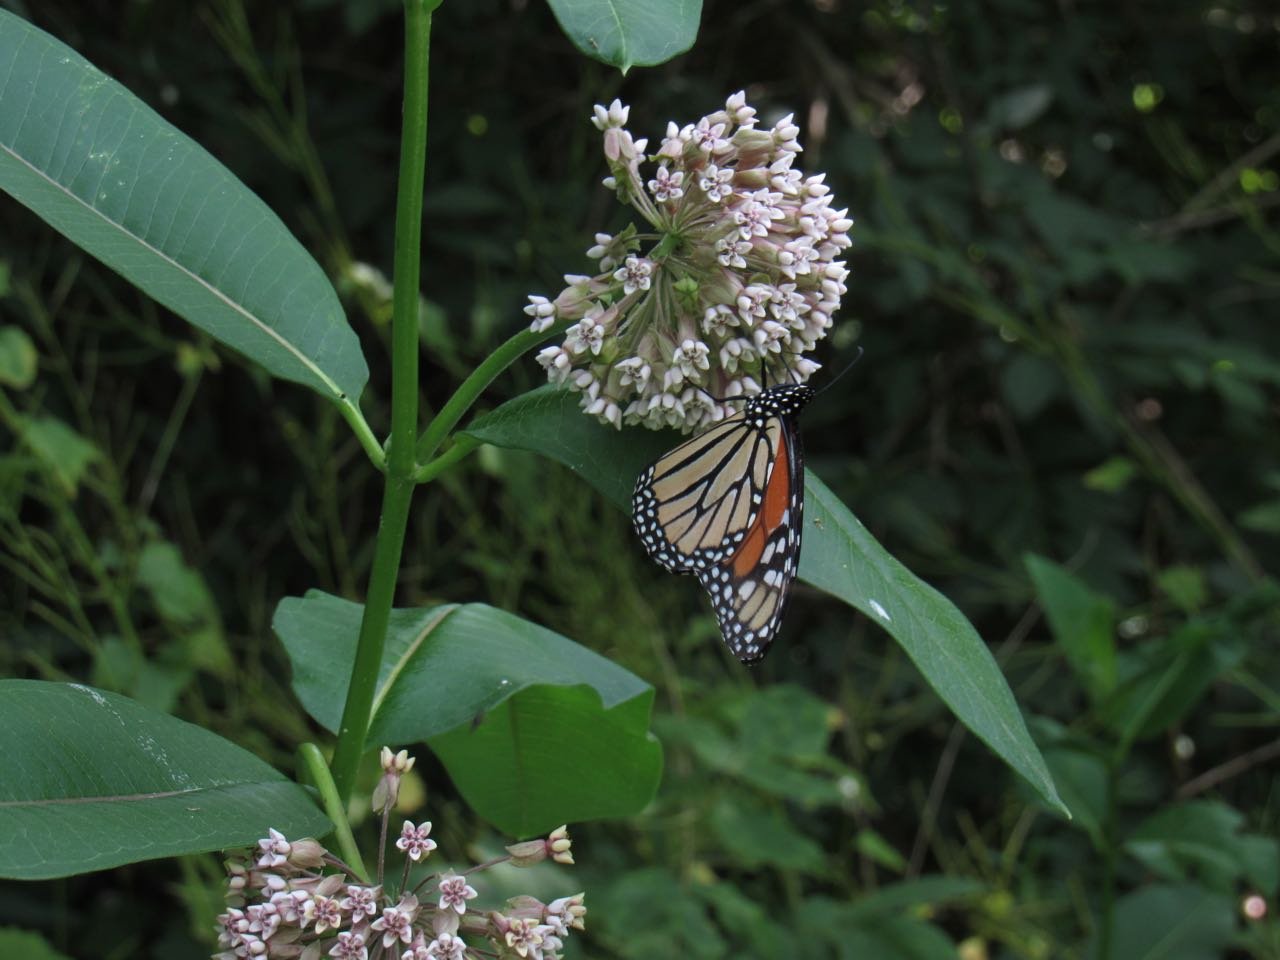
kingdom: Animalia
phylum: Arthropoda
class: Insecta
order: Lepidoptera
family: Nymphalidae
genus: Danaus
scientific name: Danaus plexippus
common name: Monarch
